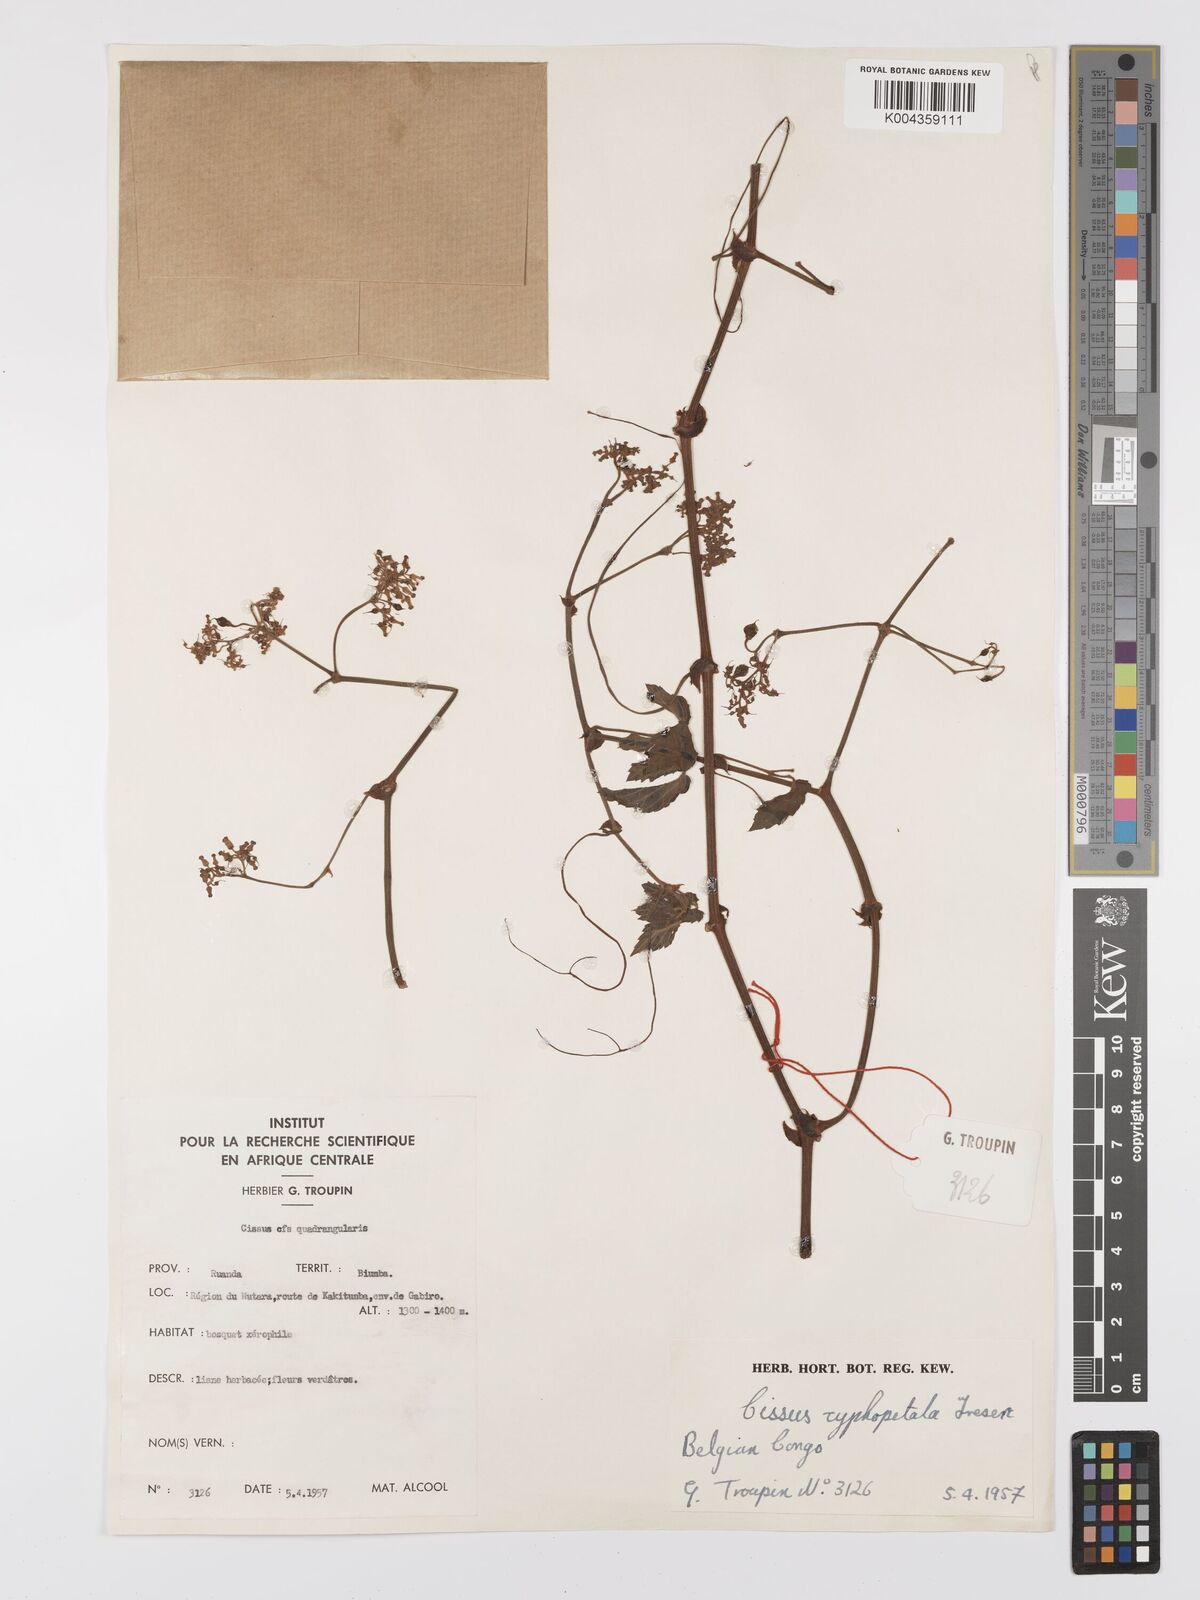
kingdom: Plantae
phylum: Tracheophyta
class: Magnoliopsida
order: Vitales
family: Vitaceae
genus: Cyphostemma
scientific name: Cyphostemma cyphopetalum
